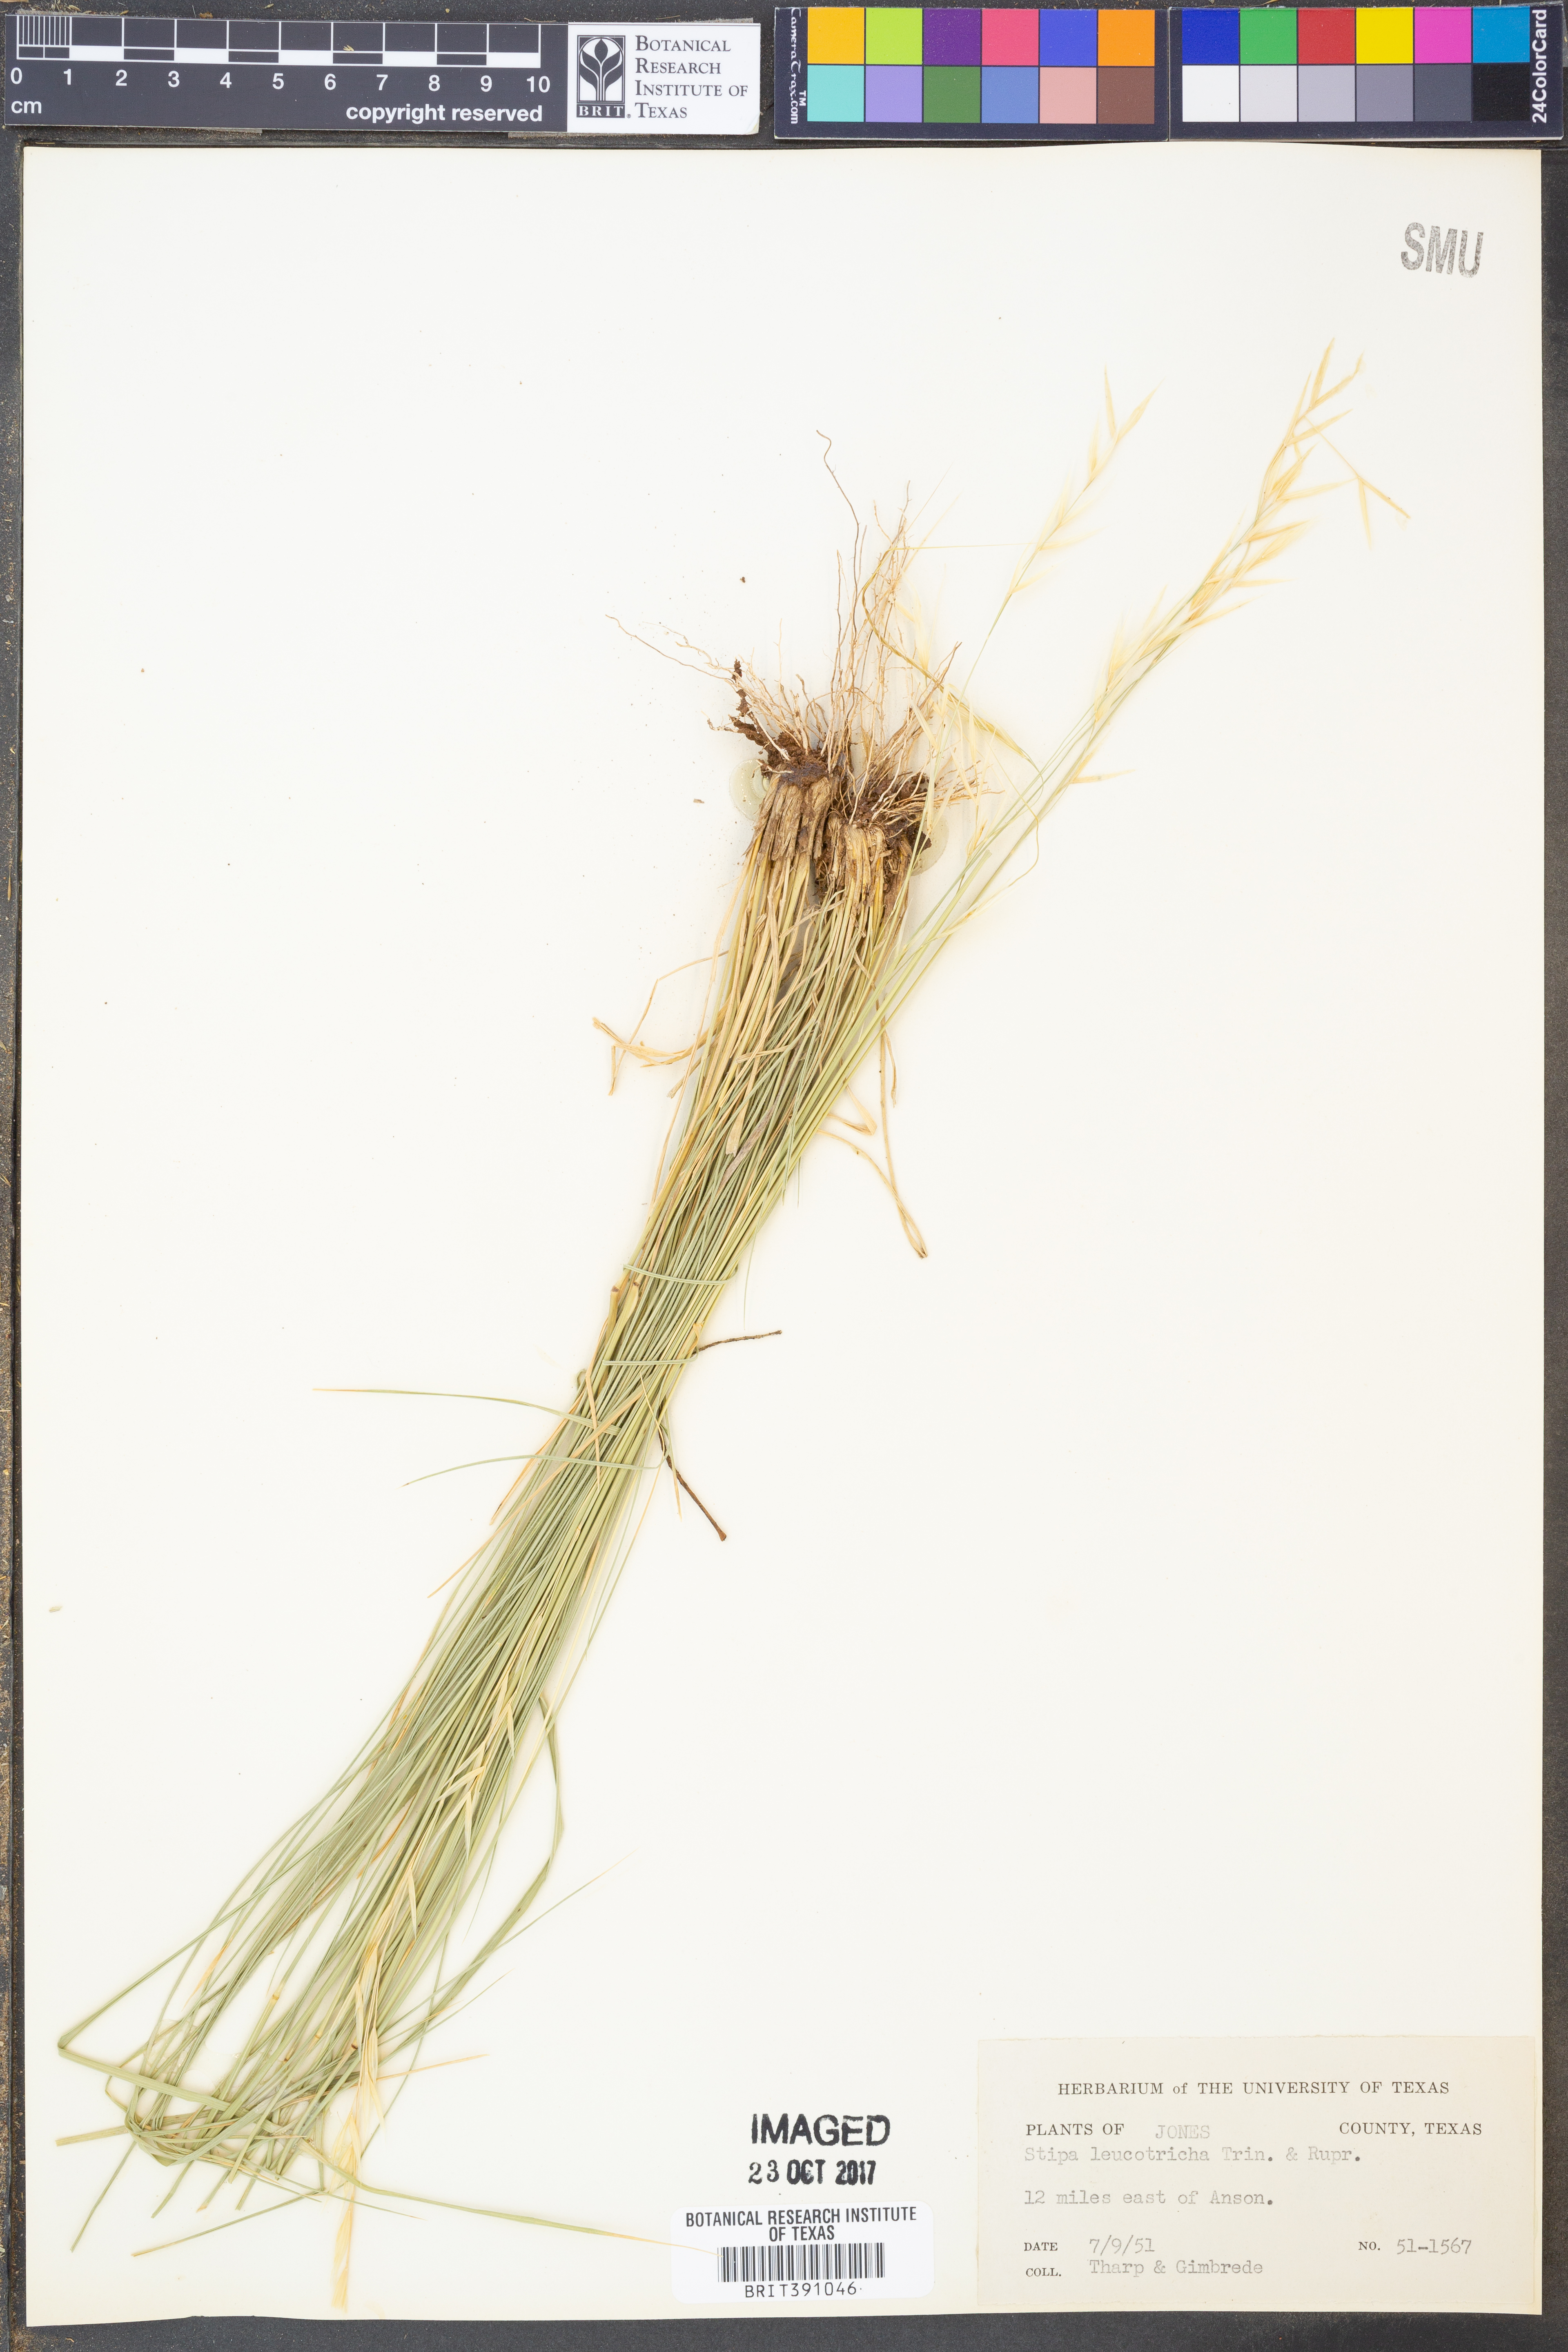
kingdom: Plantae
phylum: Tracheophyta
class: Liliopsida
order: Poales
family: Poaceae
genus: Nassella
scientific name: Nassella leucotricha
